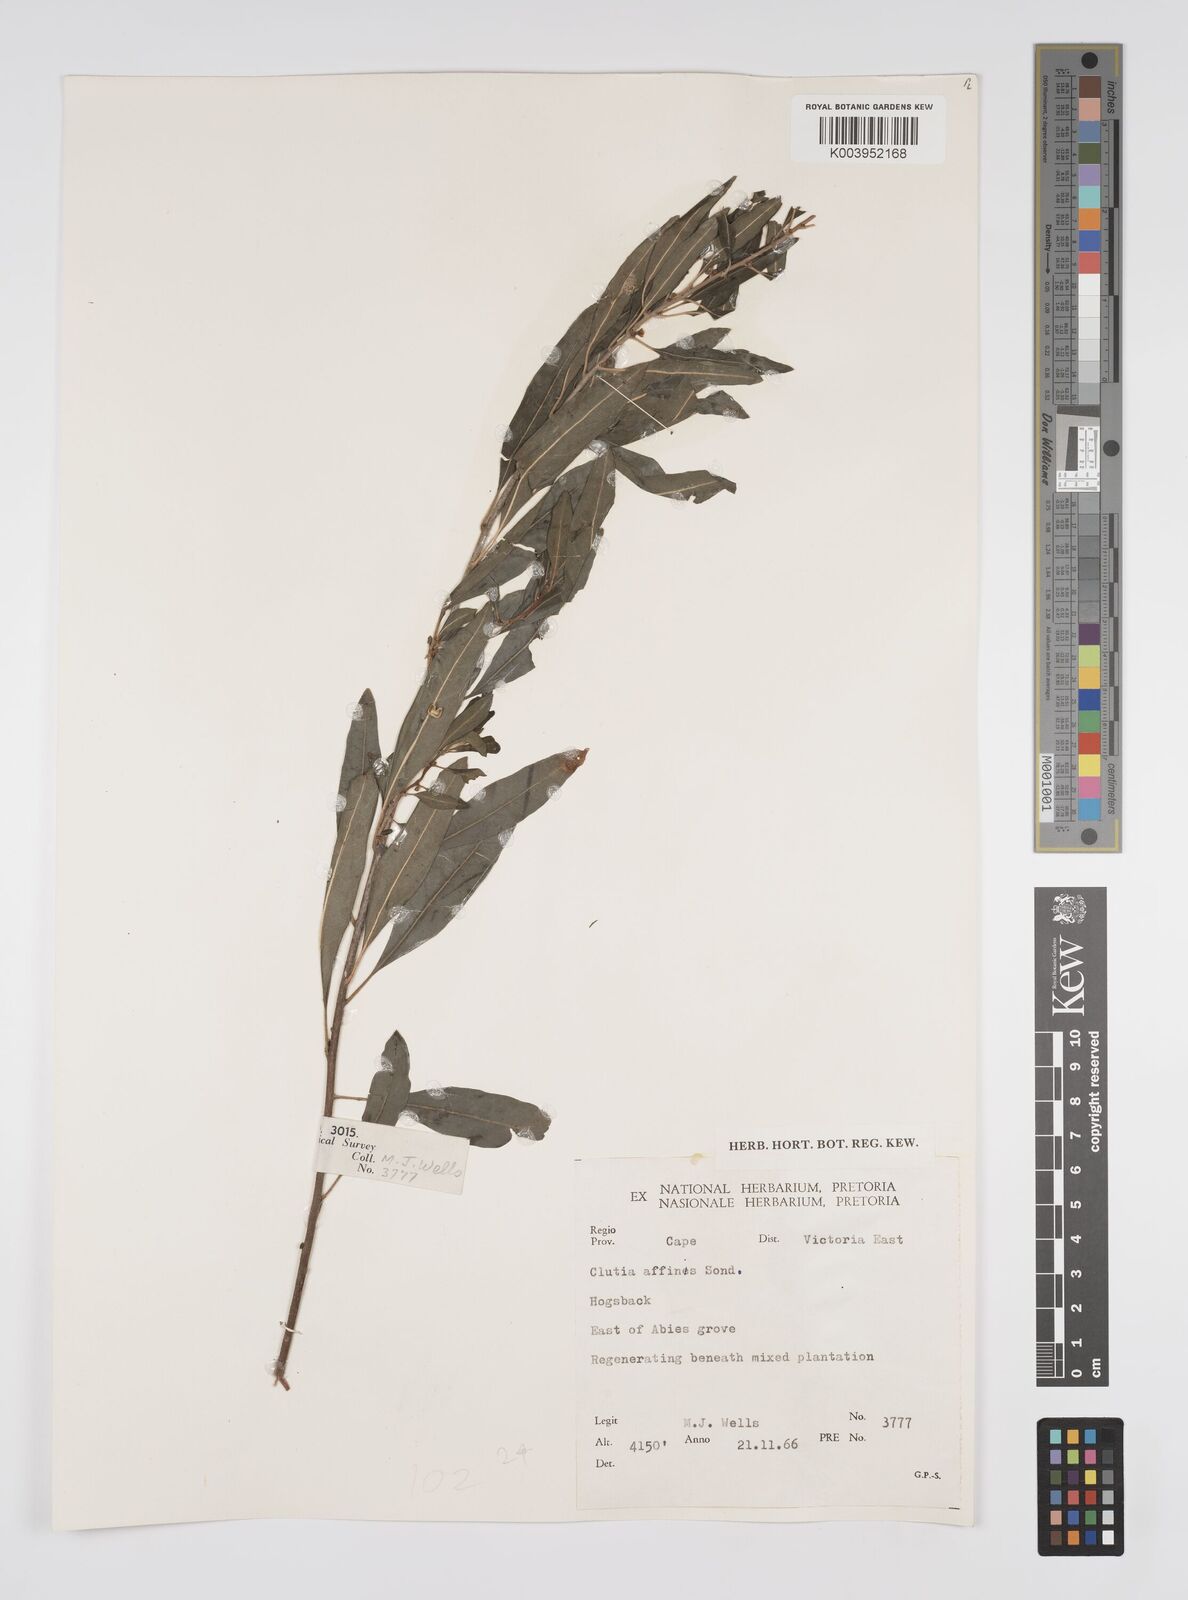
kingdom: Plantae
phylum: Tracheophyta
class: Magnoliopsida
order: Malpighiales
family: Peraceae
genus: Clutia
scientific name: Clutia affinis
